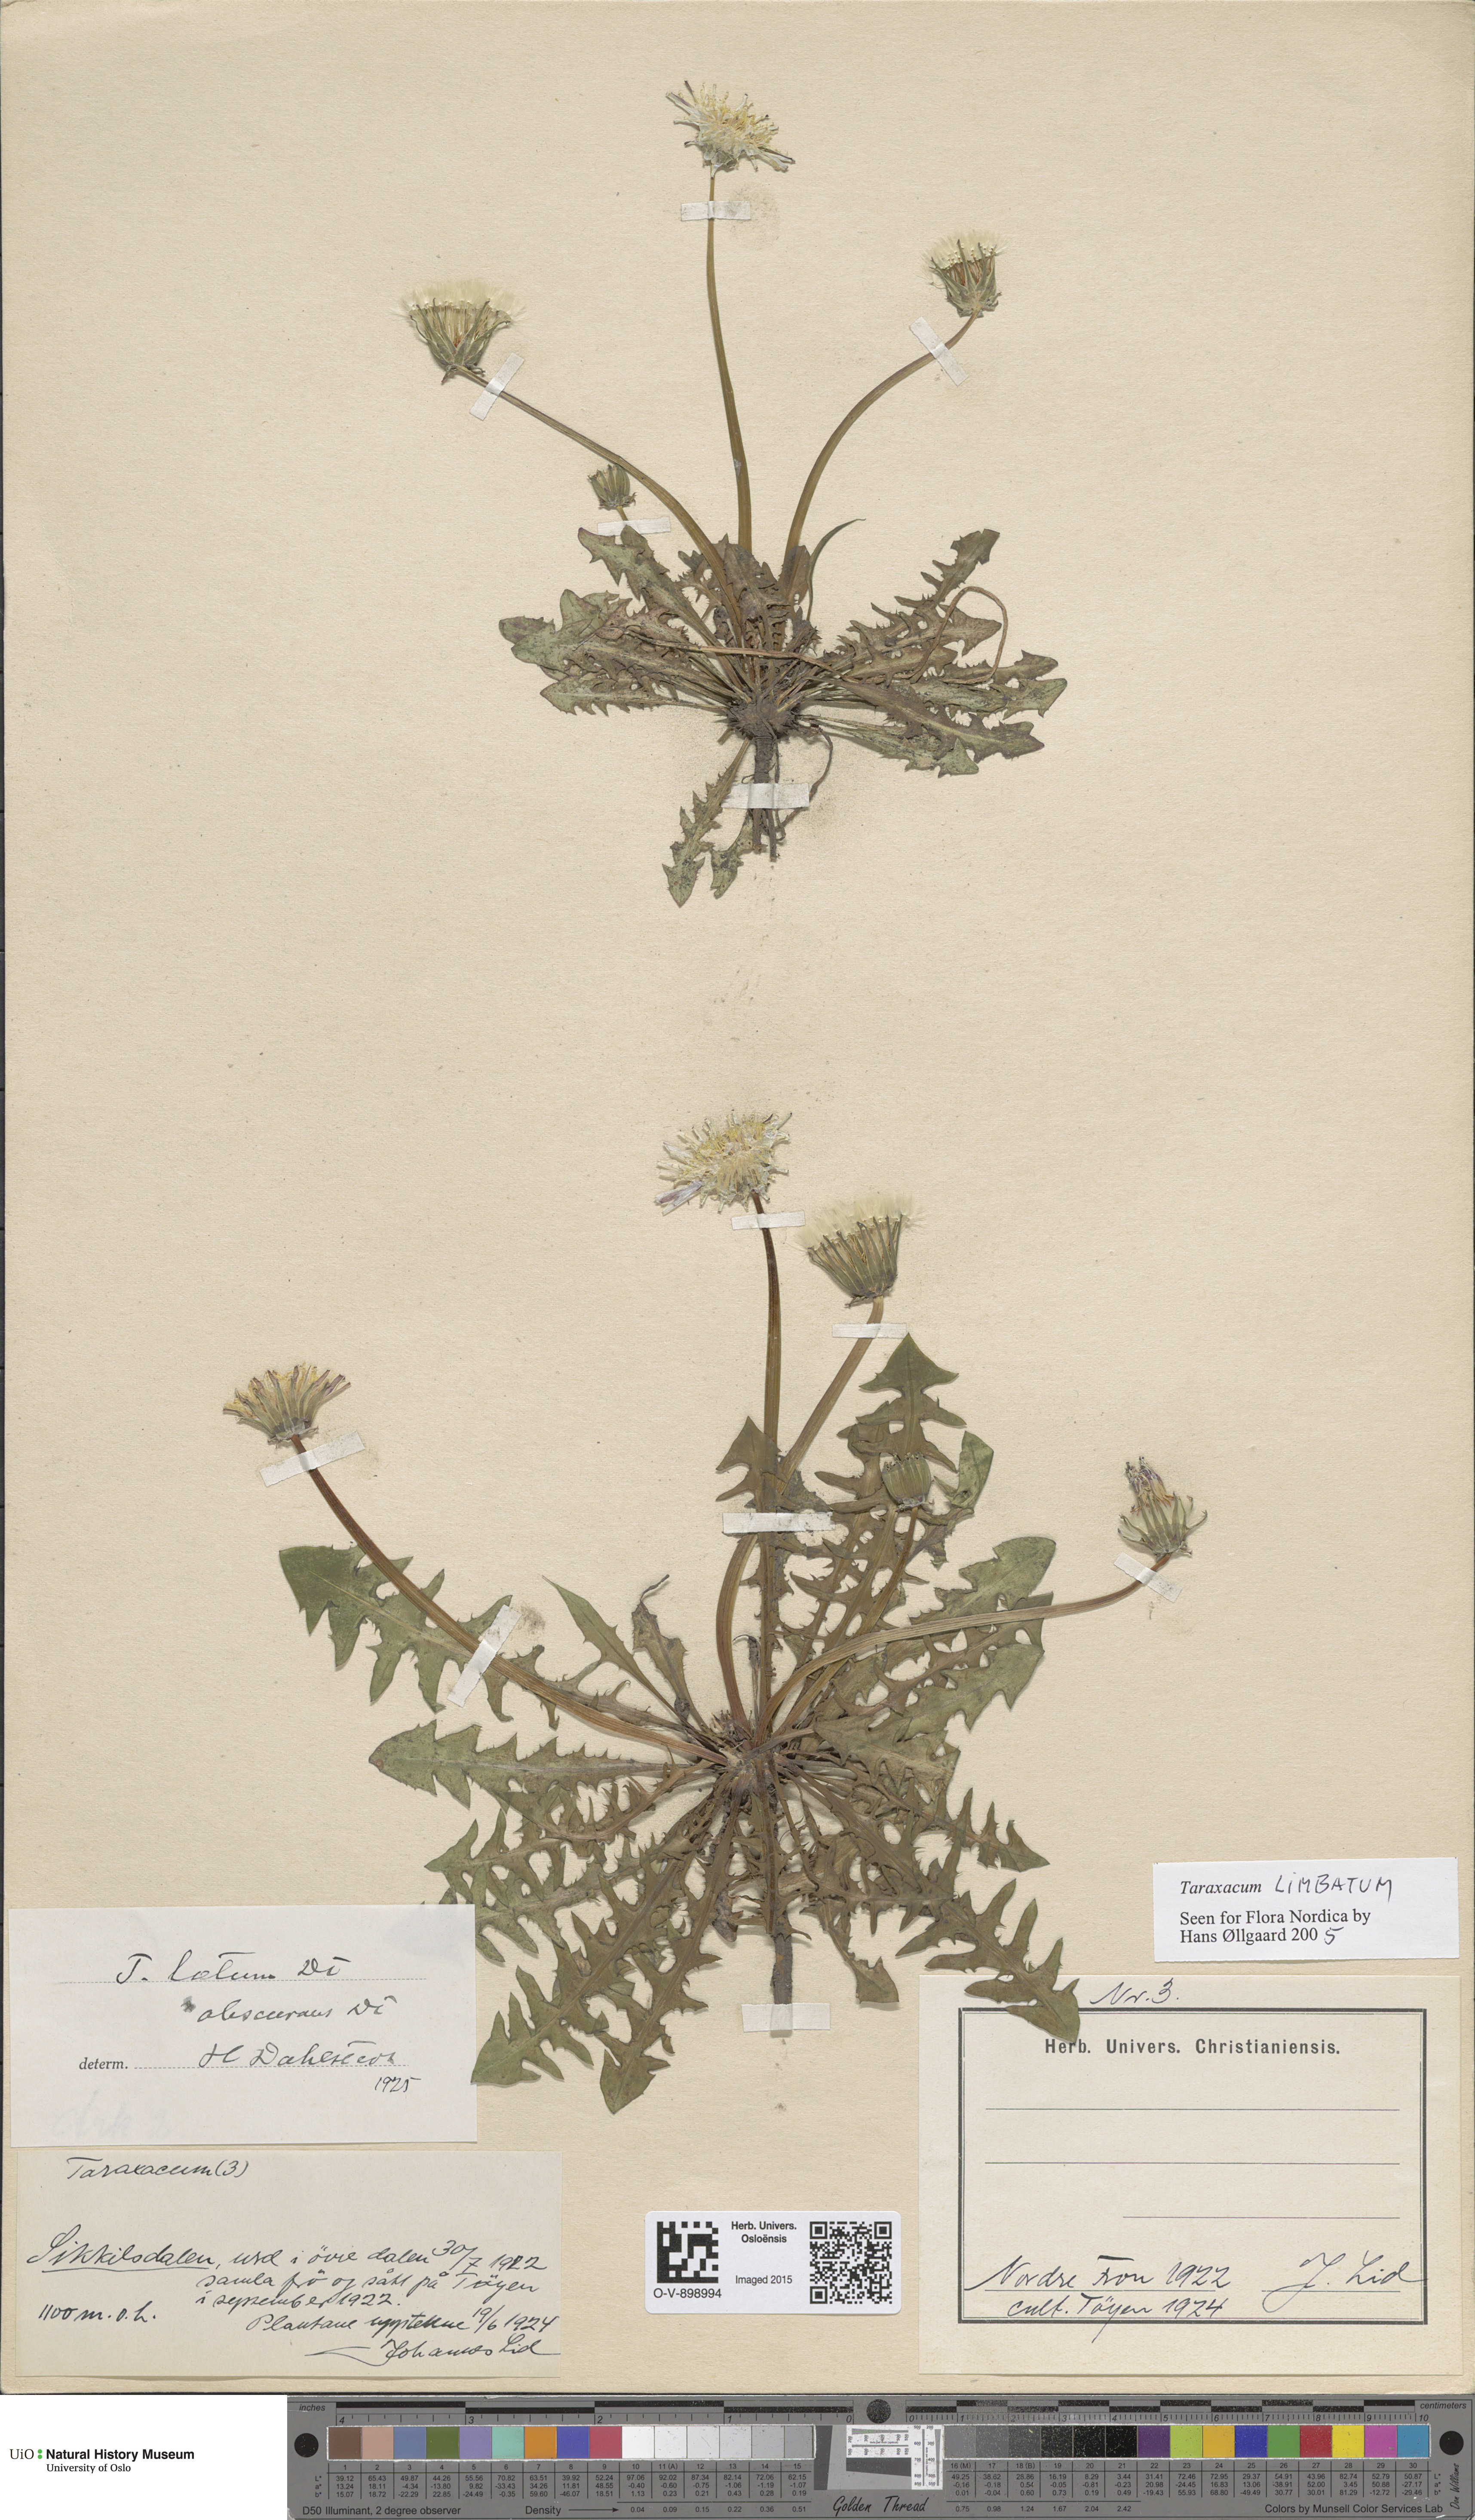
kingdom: Plantae
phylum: Tracheophyta
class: Magnoliopsida
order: Asterales
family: Asteraceae
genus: Taraxacum
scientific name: Taraxacum laetum
